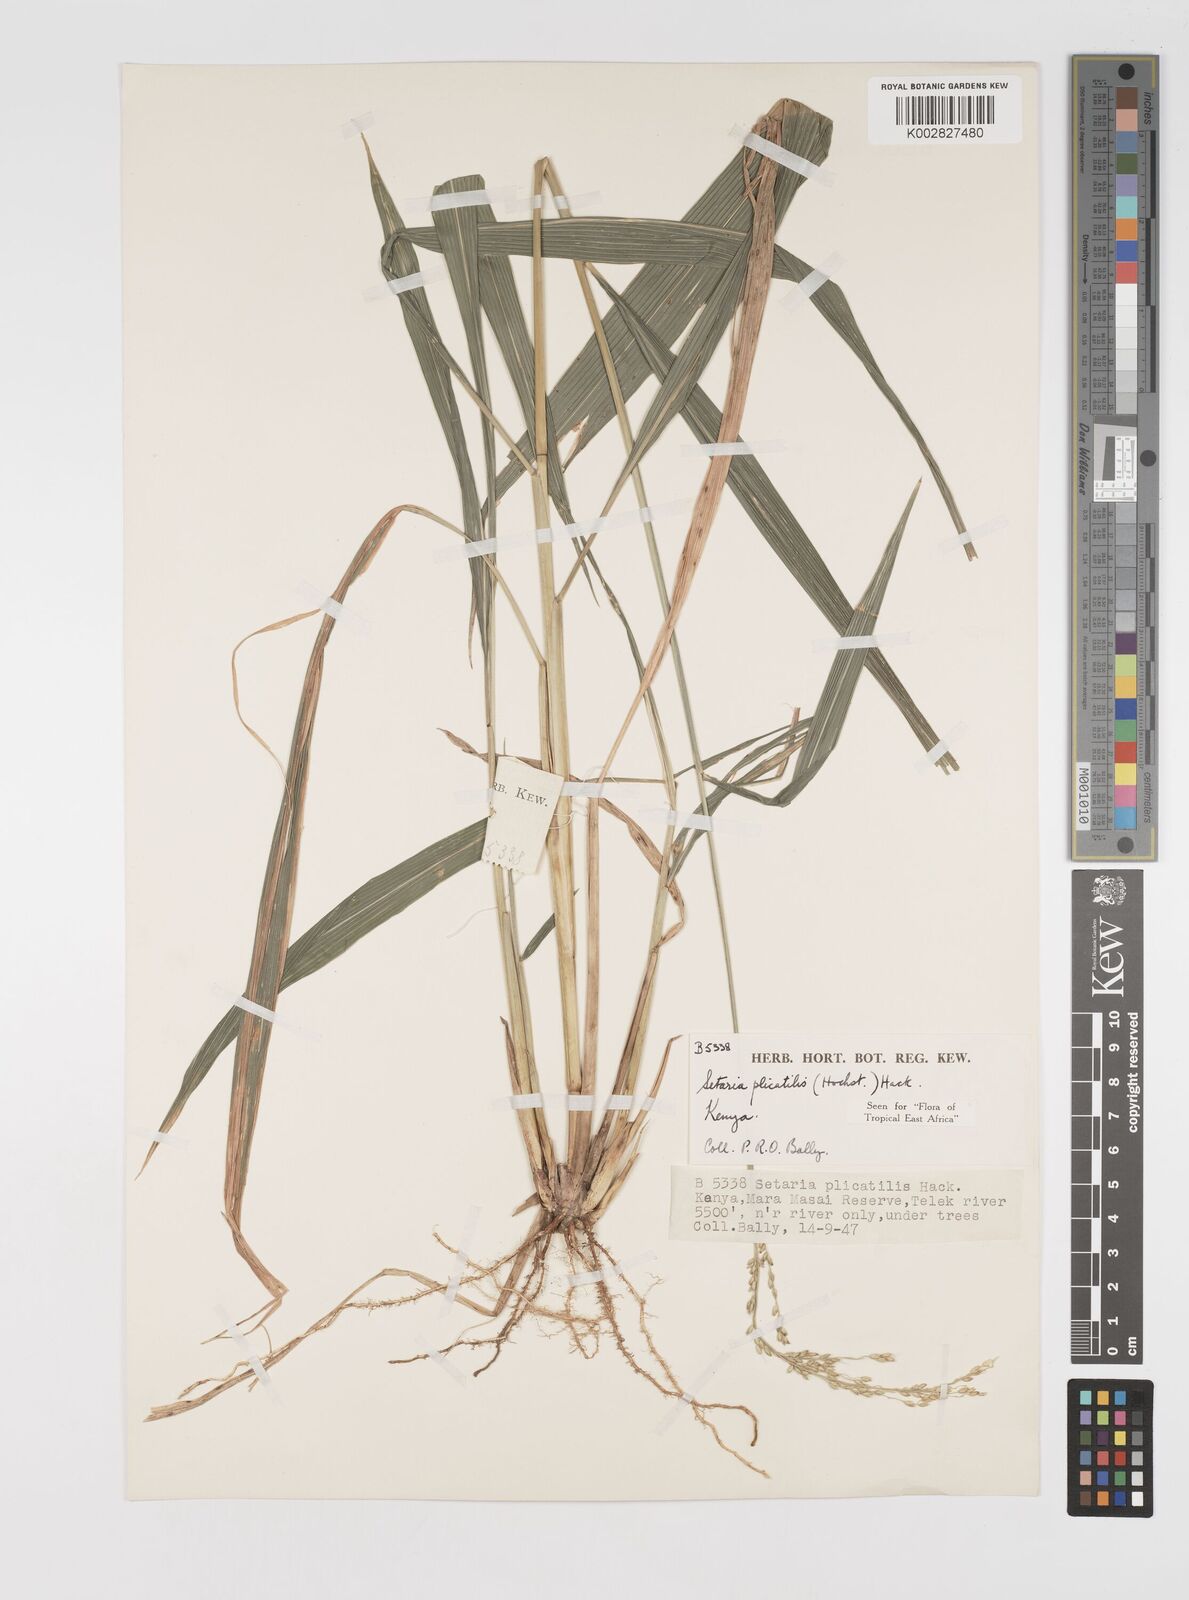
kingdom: Plantae
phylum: Tracheophyta
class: Liliopsida
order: Poales
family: Poaceae
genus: Setaria
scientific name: Setaria megaphylla
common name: Bigleaf bristlegrass
